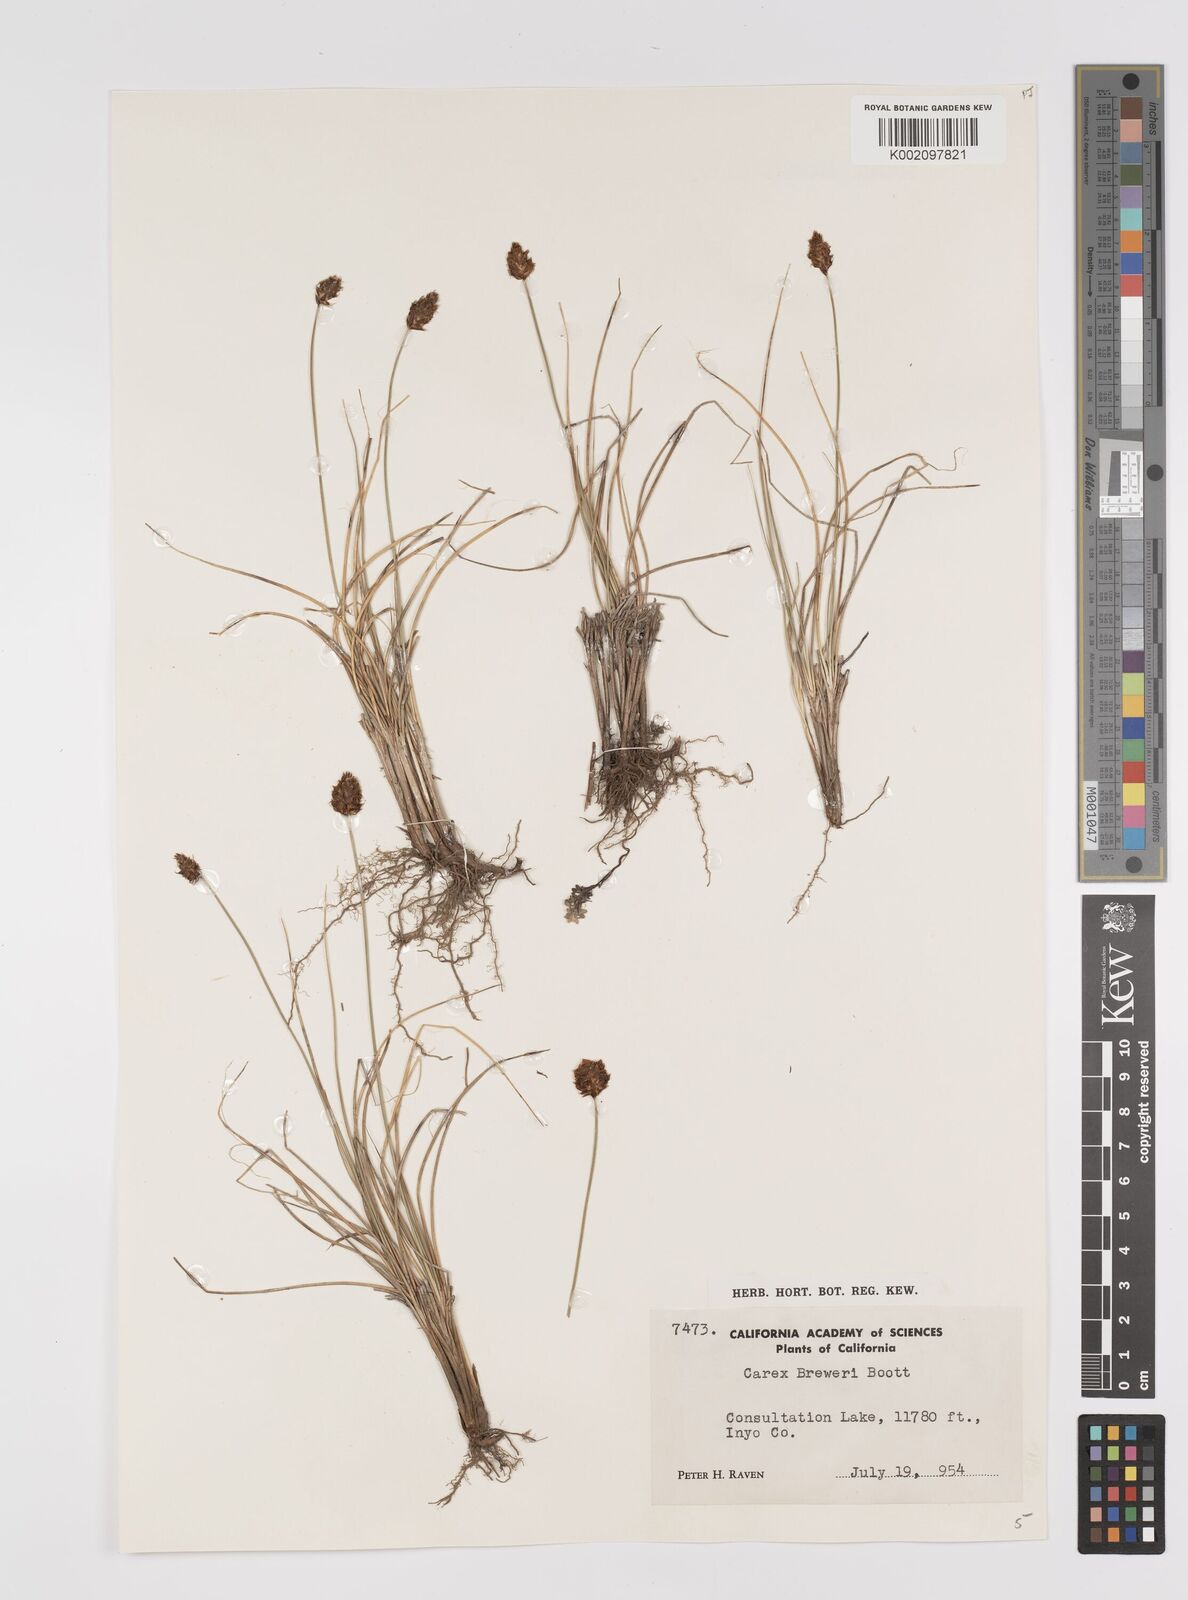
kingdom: Plantae
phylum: Tracheophyta
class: Liliopsida
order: Poales
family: Cyperaceae
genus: Carex
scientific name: Carex breweri
